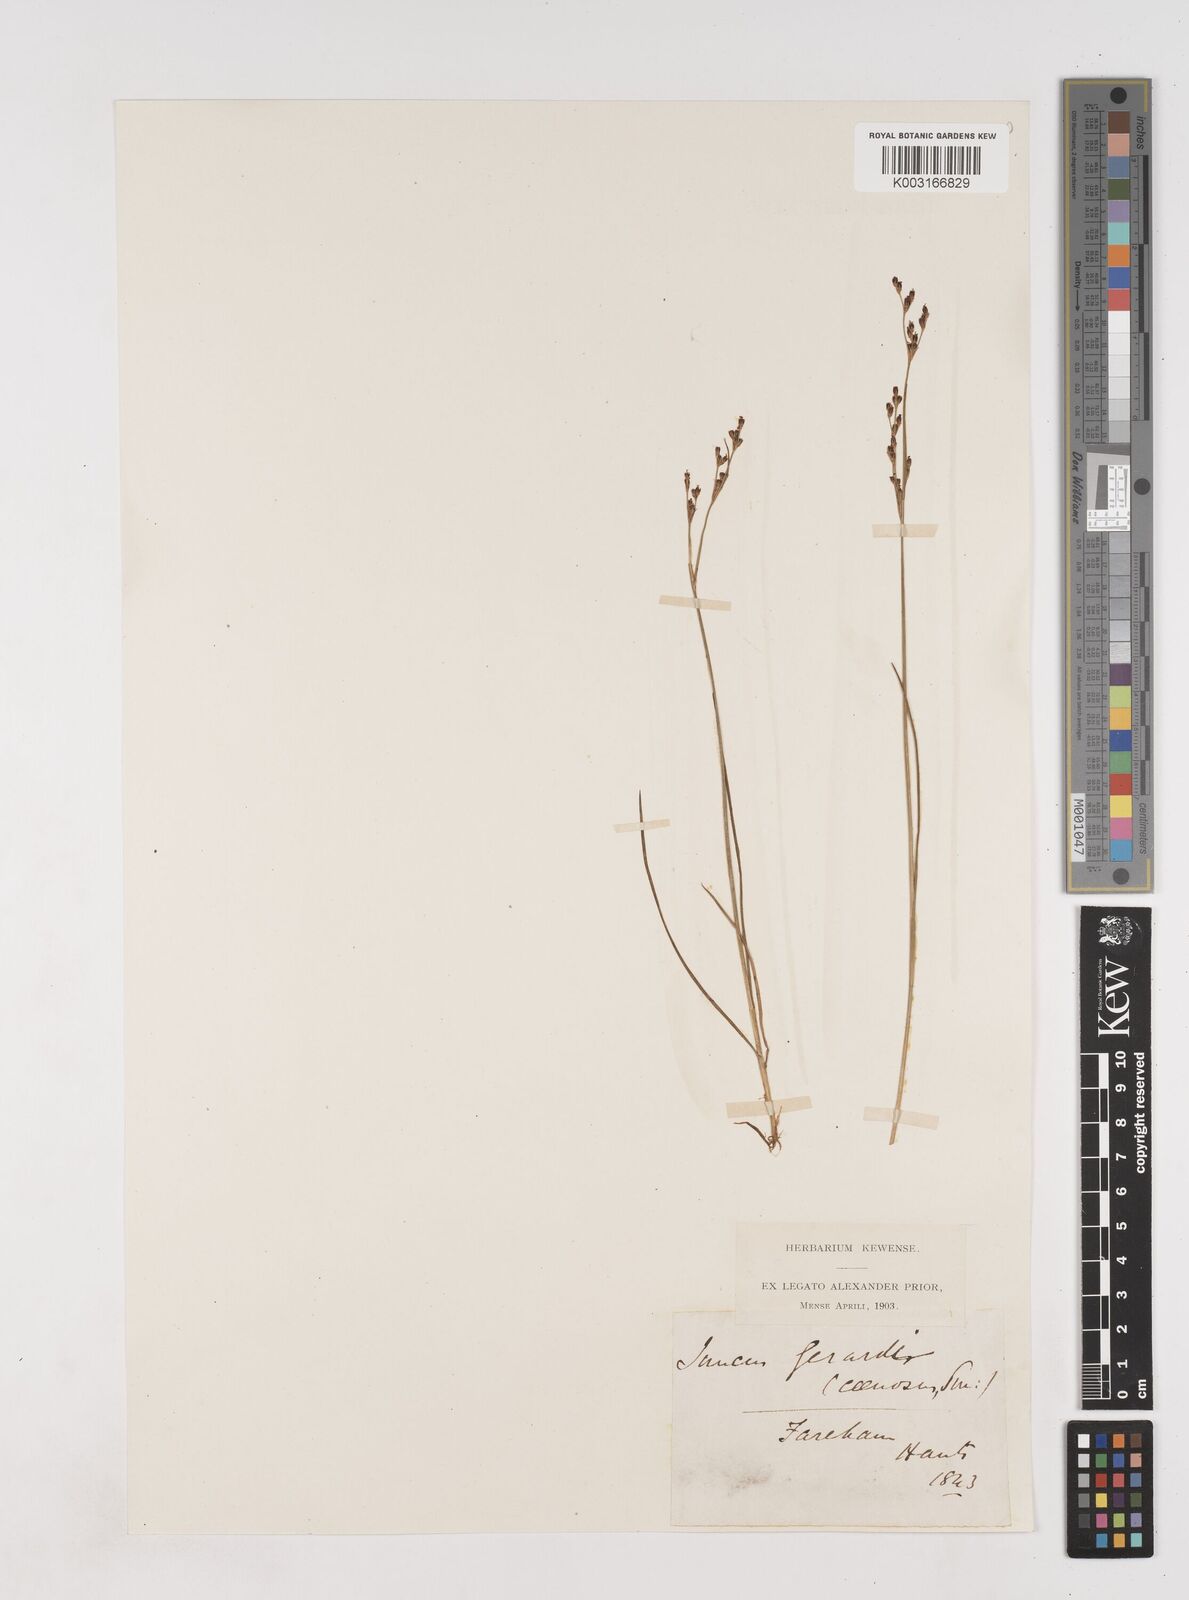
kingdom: Plantae
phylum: Tracheophyta
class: Liliopsida
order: Poales
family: Juncaceae
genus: Juncus
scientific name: Juncus gerardi
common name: Saltmarsh rush
